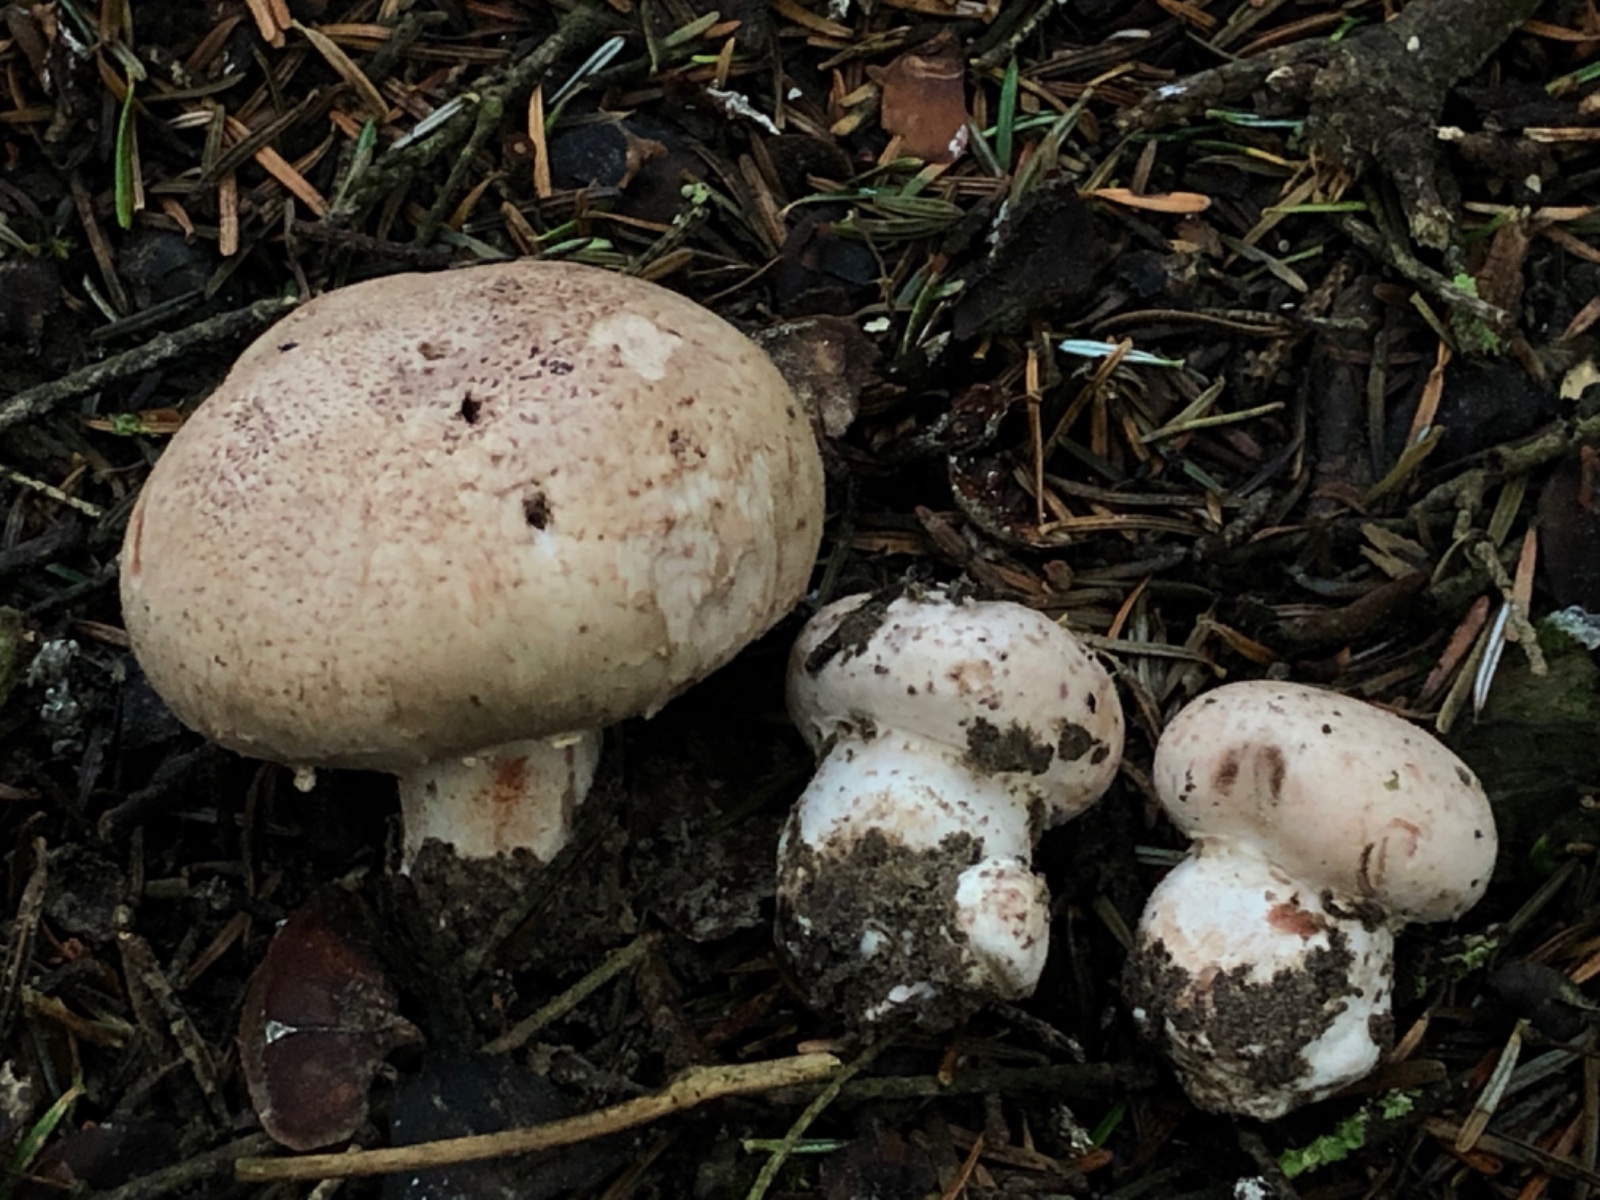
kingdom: Fungi
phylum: Basidiomycota
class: Agaricomycetes
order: Agaricales
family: Agaricaceae
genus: Agaricus
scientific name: Agaricus subfloccosus
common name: randskællet champignon
